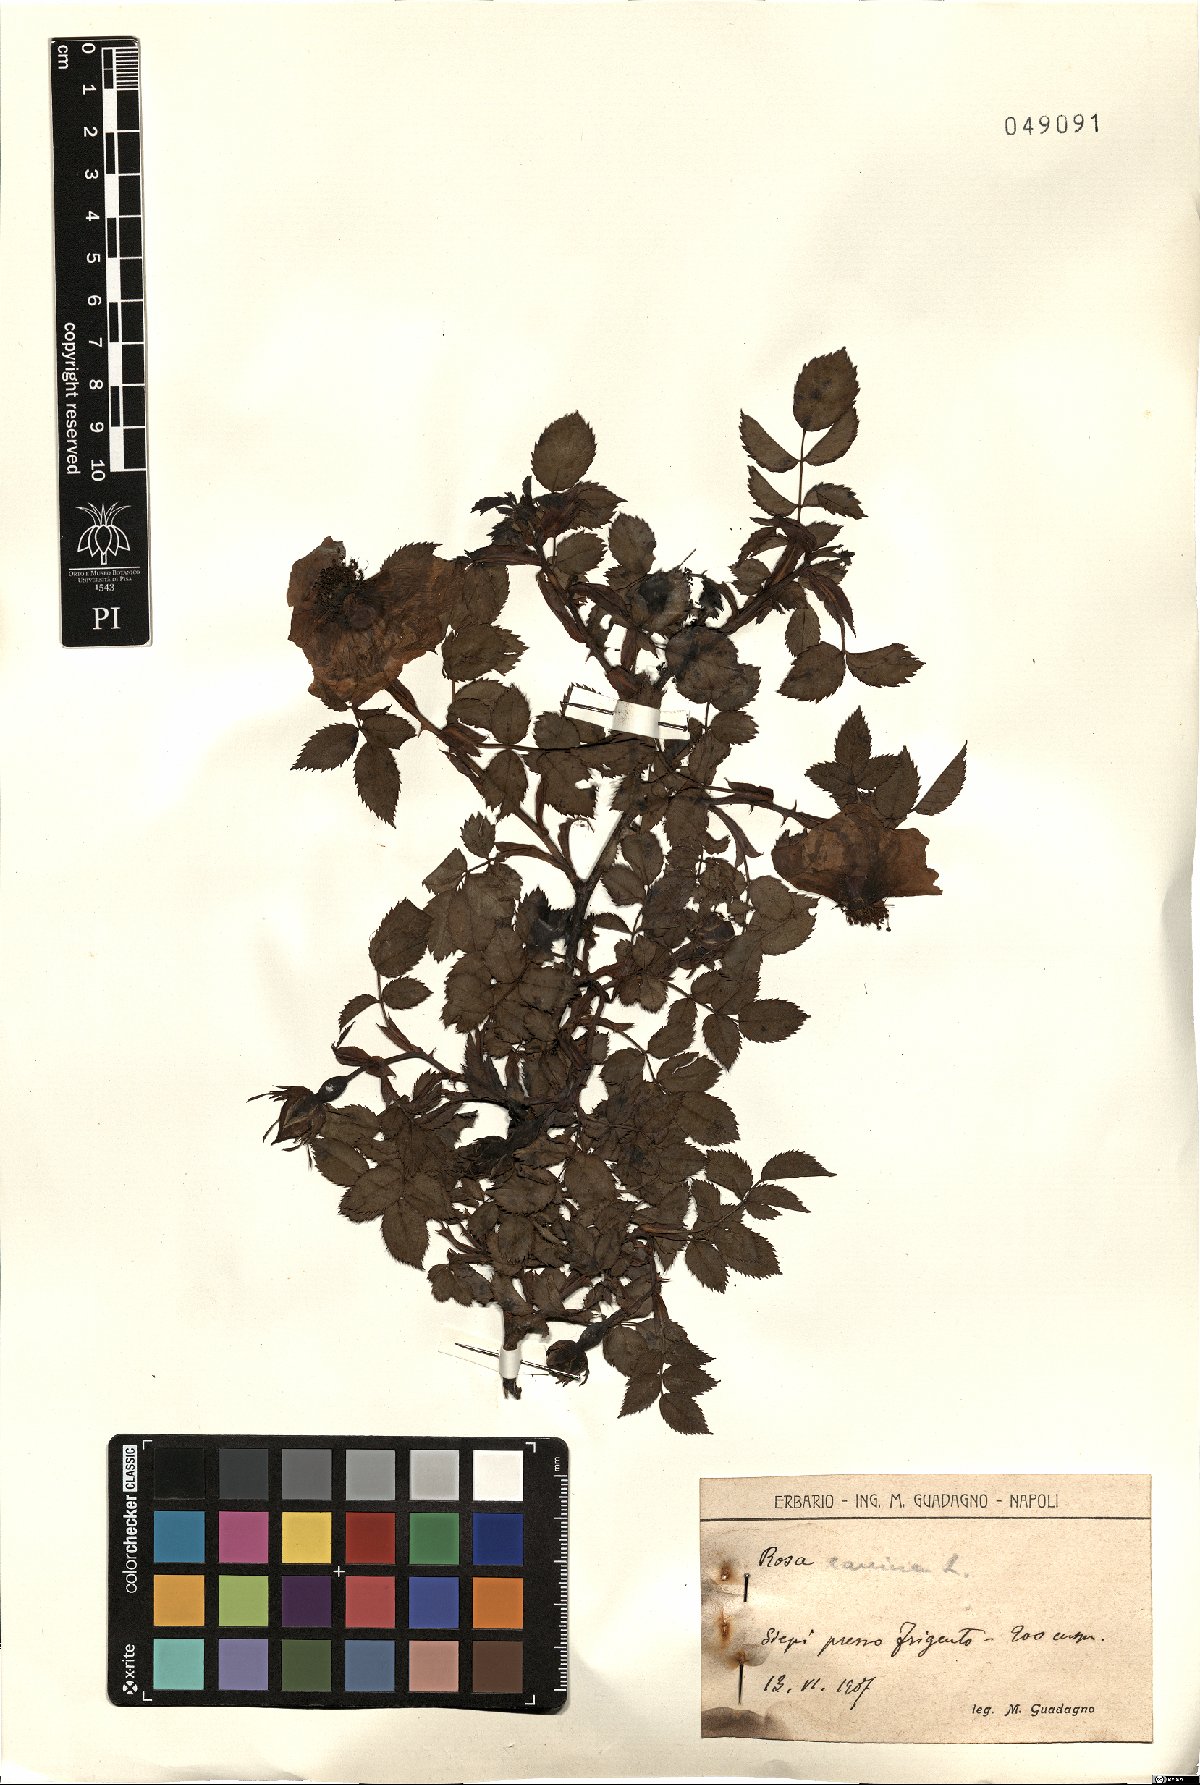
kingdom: Plantae
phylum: Tracheophyta
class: Magnoliopsida
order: Rosales
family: Rosaceae
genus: Rosa
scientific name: Rosa canina
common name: Dog rose
